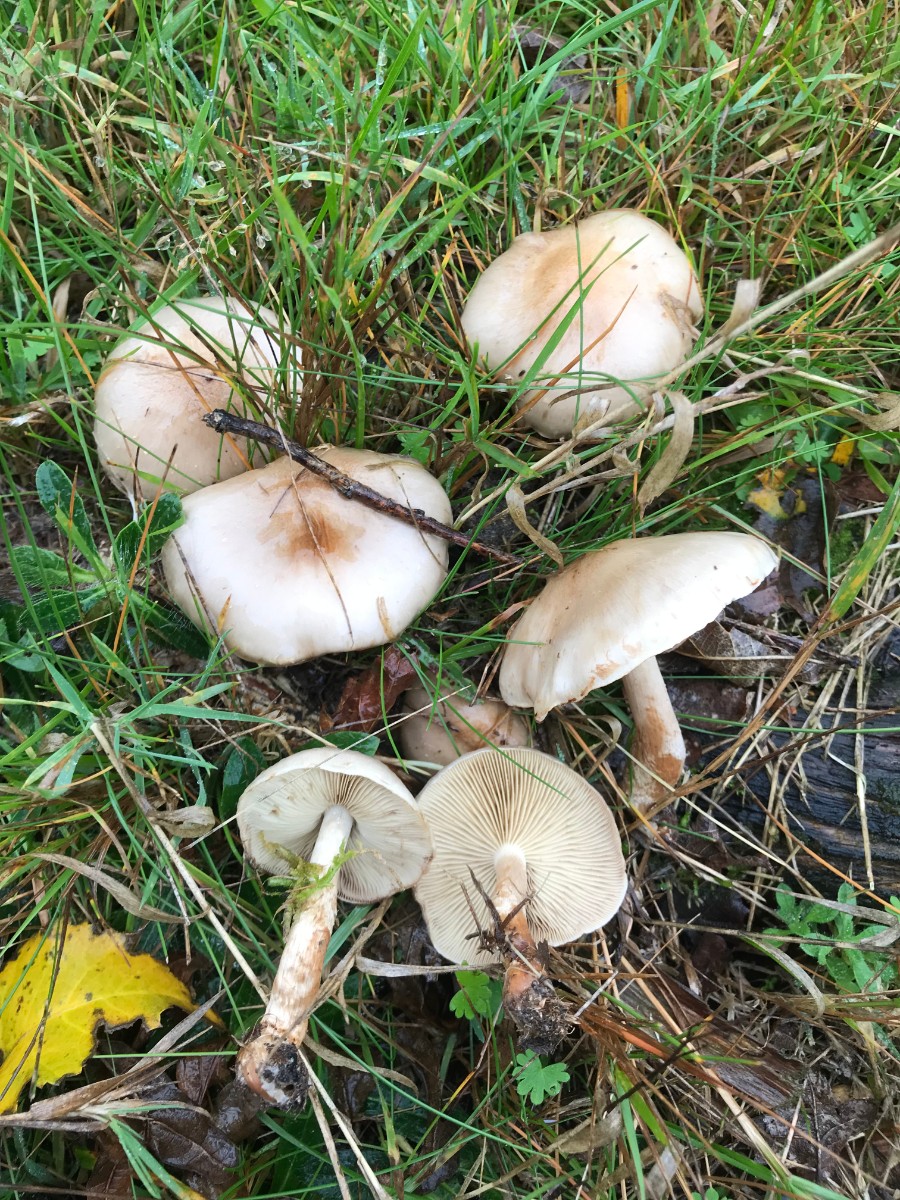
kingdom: Fungi
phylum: Basidiomycota
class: Agaricomycetes
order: Agaricales
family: Strophariaceae
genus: Pholiota
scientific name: Pholiota lenta
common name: løv-skælhat
